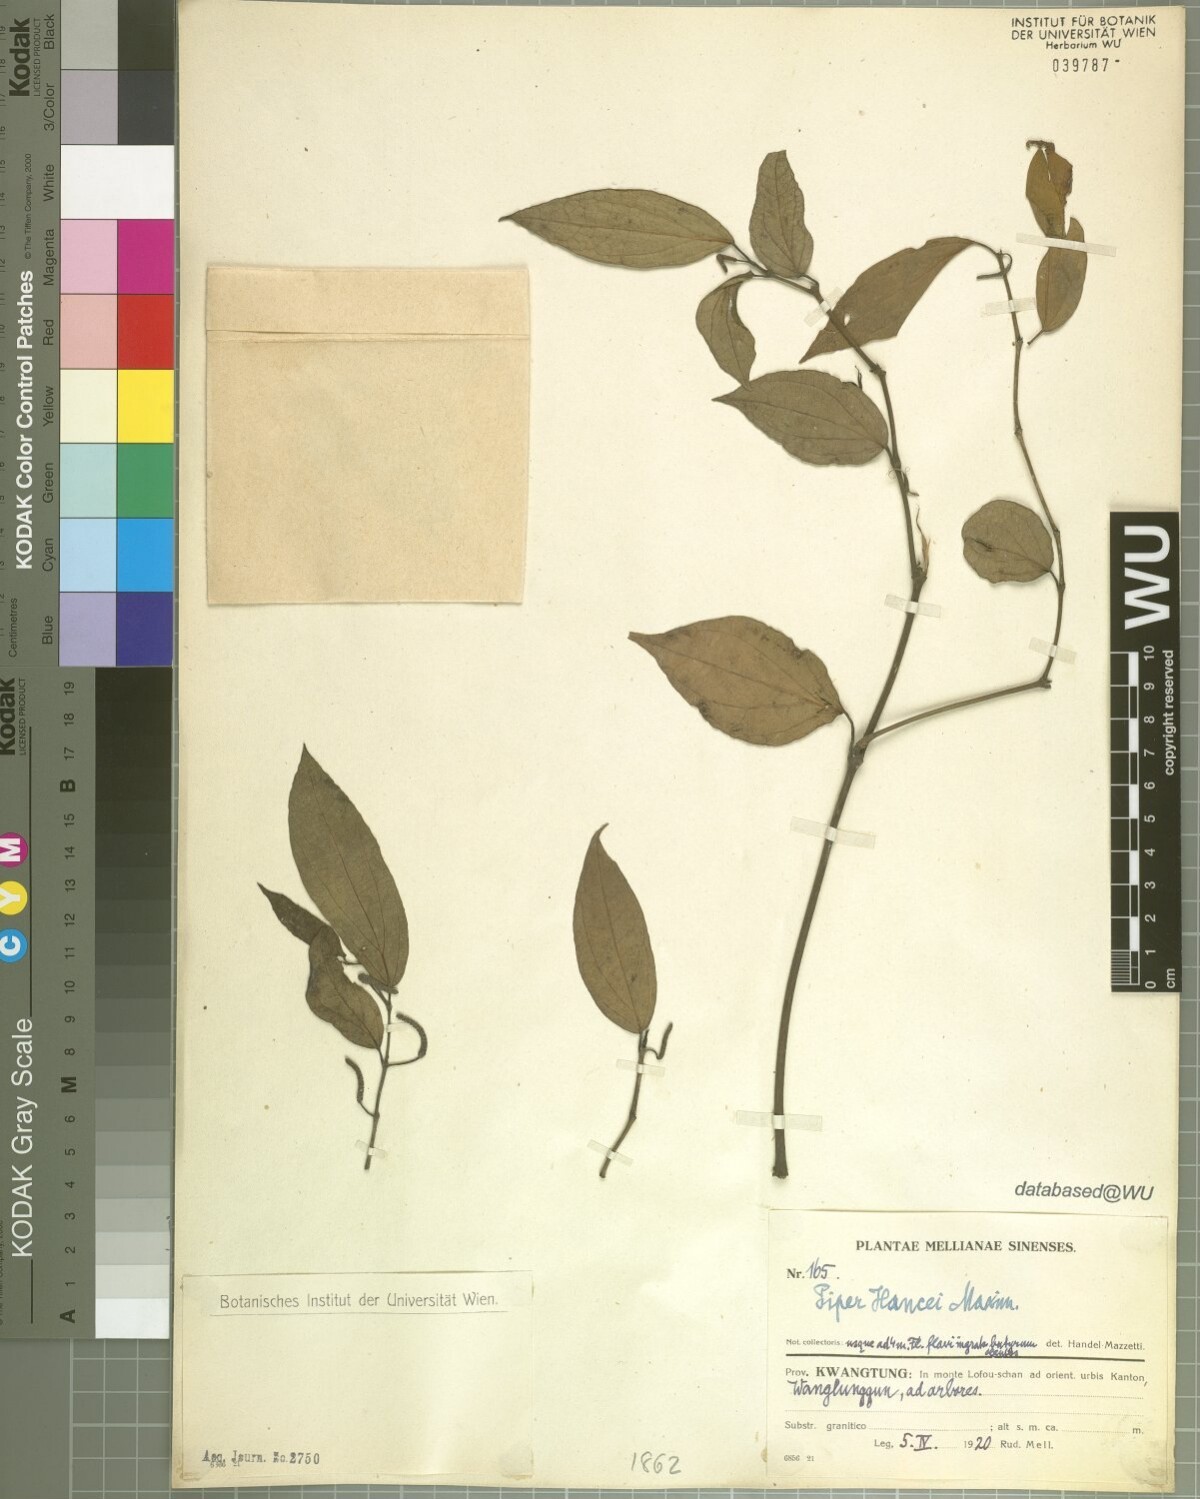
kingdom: Plantae
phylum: Tracheophyta
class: Magnoliopsida
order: Piperales
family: Piperaceae
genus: Piper
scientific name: Piper hancei
